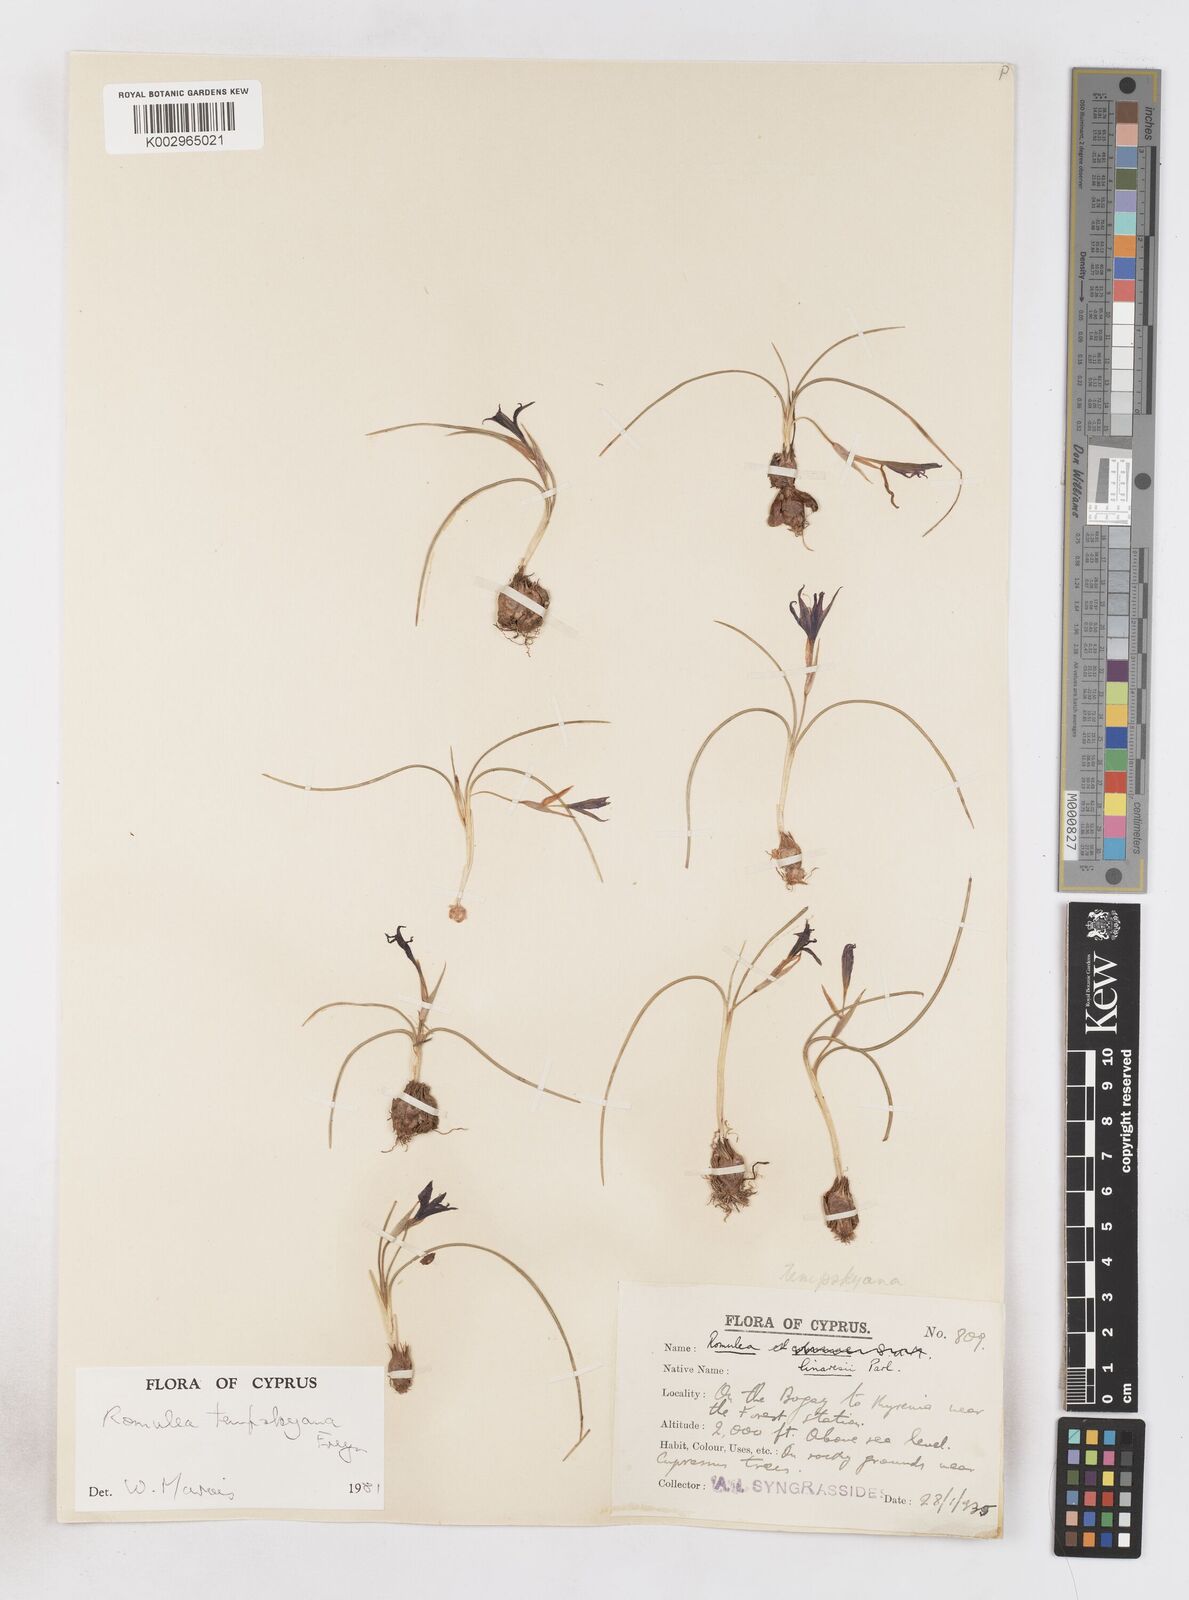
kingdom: Plantae
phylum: Tracheophyta
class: Liliopsida
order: Asparagales
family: Iridaceae
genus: Romulea
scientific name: Romulea tempskyana
